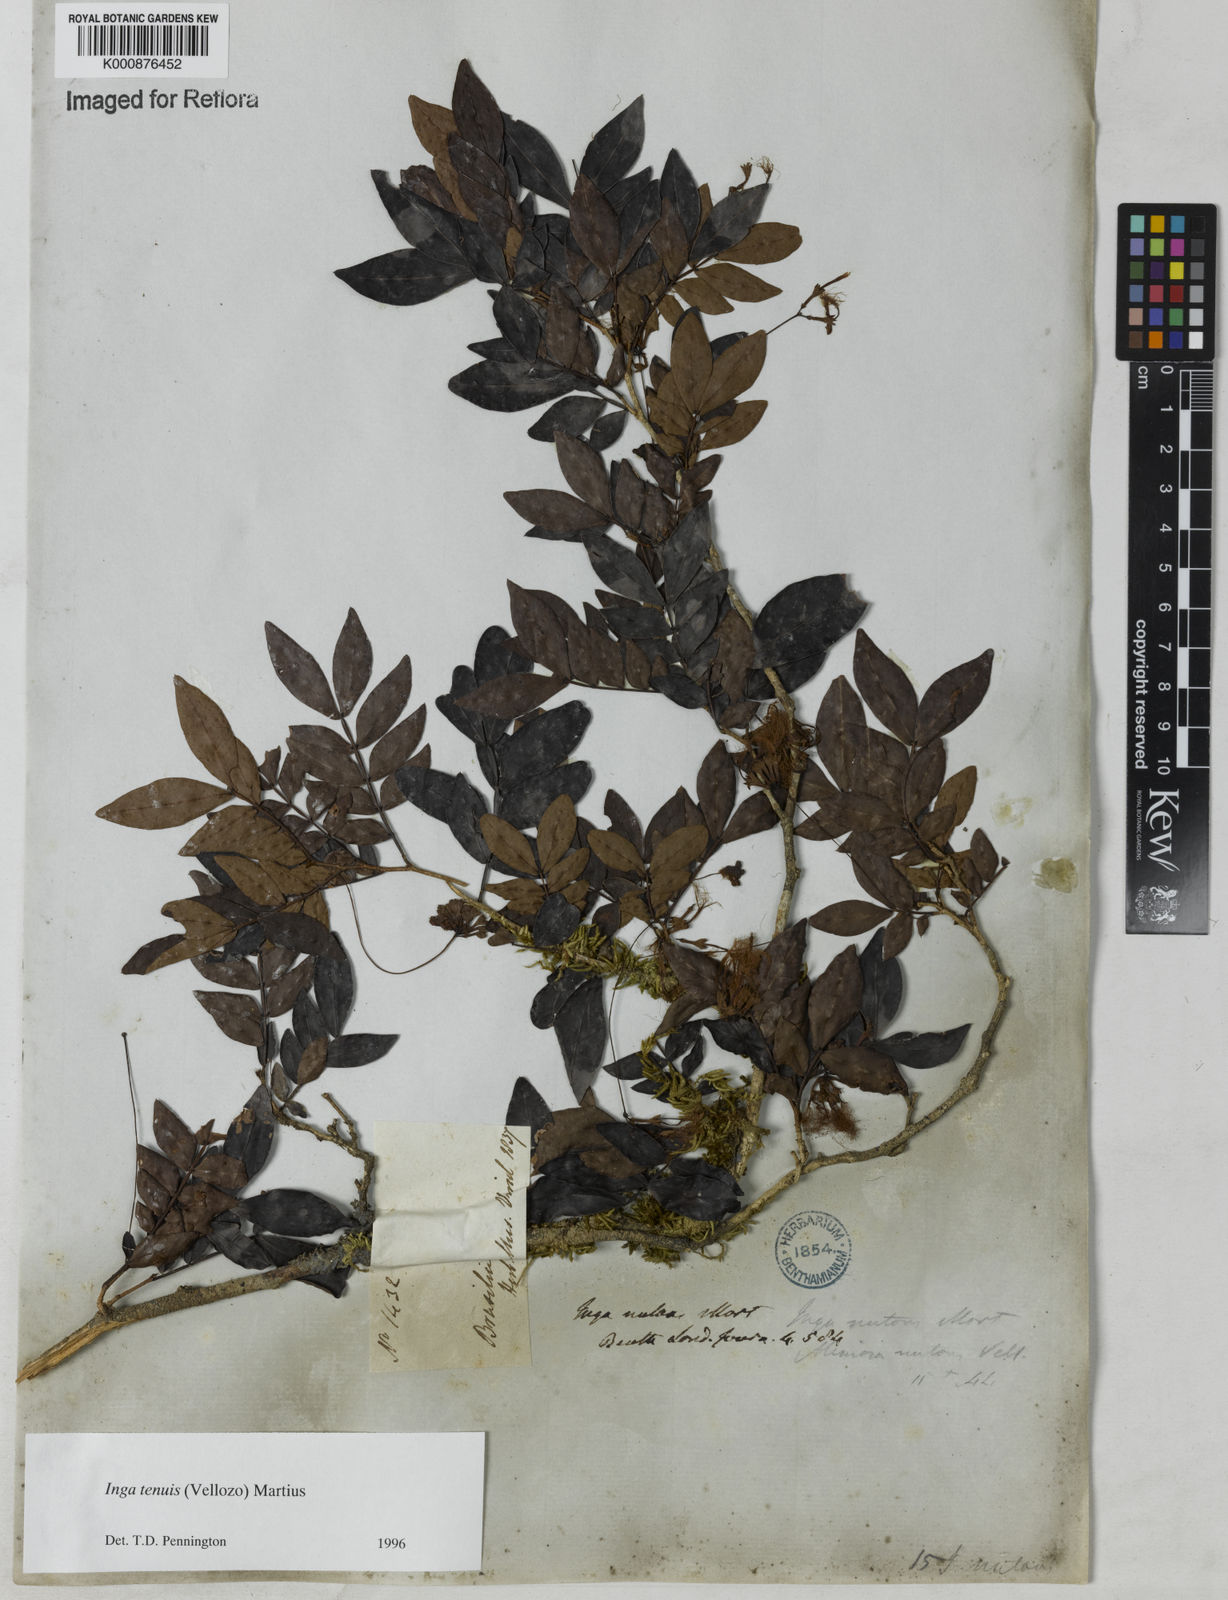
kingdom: Plantae
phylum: Tracheophyta
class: Magnoliopsida
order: Fabales
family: Fabaceae
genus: Inga
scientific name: Inga tenuis
